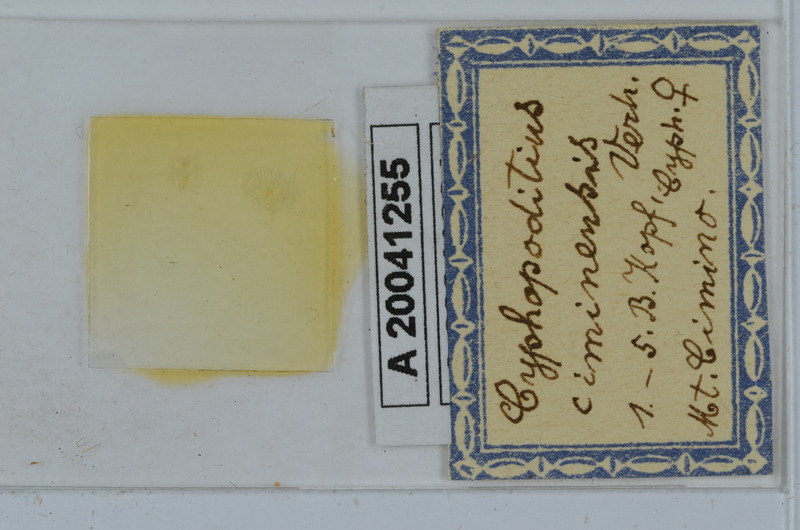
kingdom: Animalia
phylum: Arthropoda
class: Diplopoda
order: Julida
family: Rhopaloiulidae
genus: Rhopaloiulus
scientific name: Rhopaloiulus cameratanus
